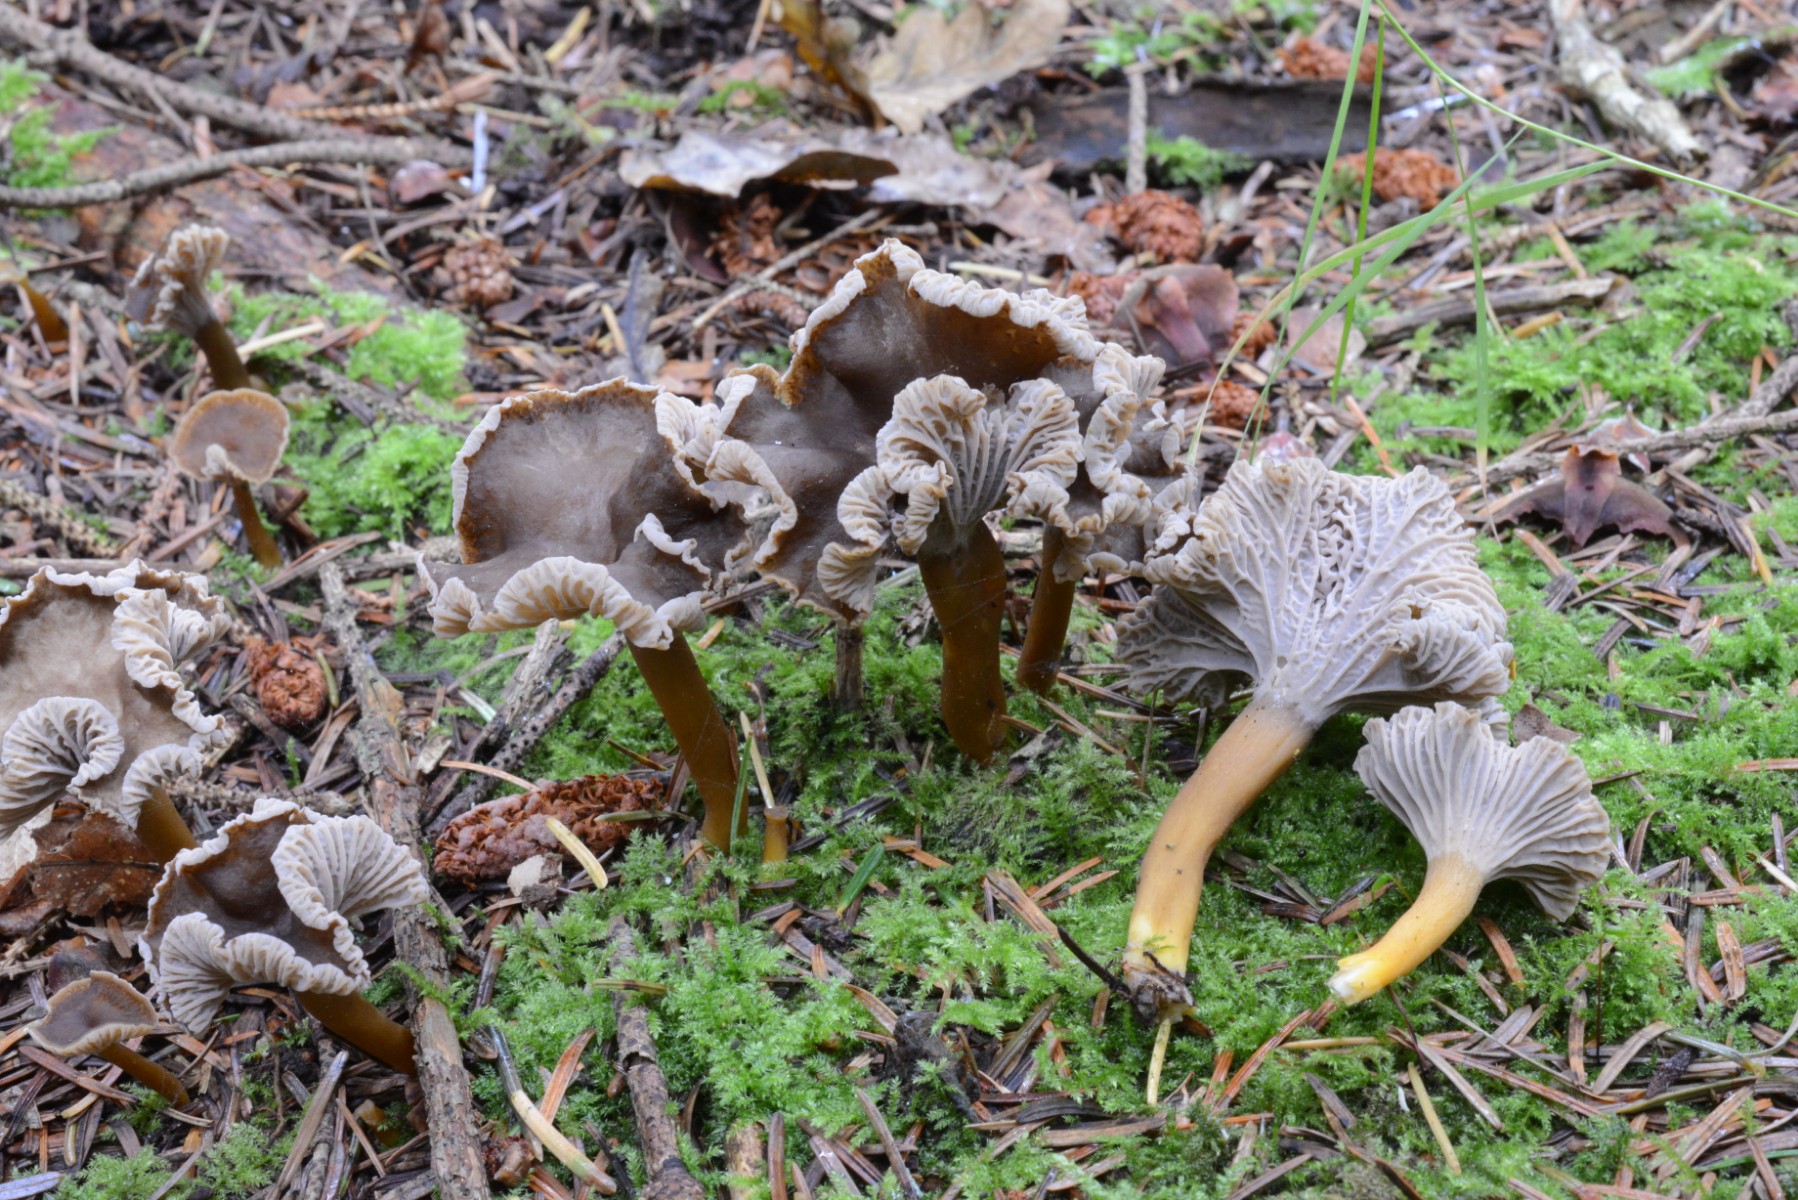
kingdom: Fungi
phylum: Basidiomycota
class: Agaricomycetes
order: Cantharellales
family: Hydnaceae
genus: Craterellus
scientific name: Craterellus tubaeformis
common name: tragt-kantarel
